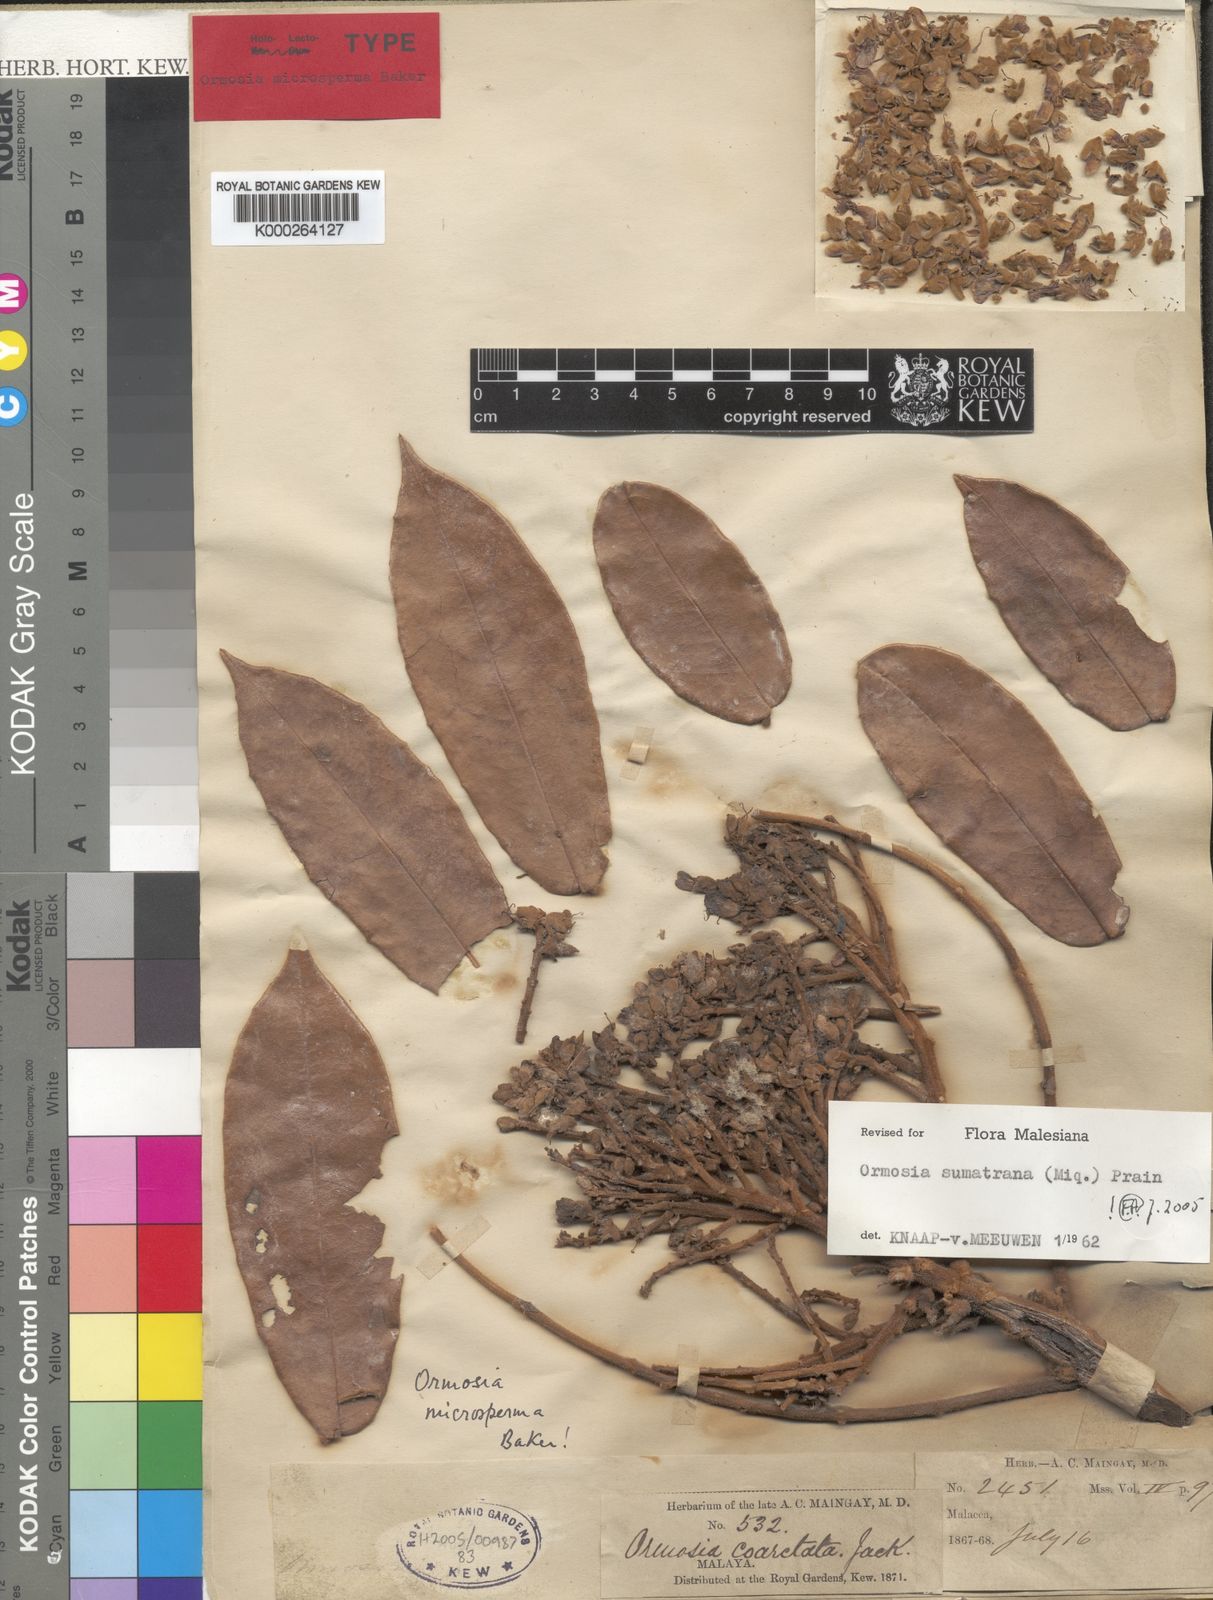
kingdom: Plantae
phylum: Tracheophyta
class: Magnoliopsida
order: Fabales
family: Fabaceae
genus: Ormosia
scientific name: Ormosia sumatrana
